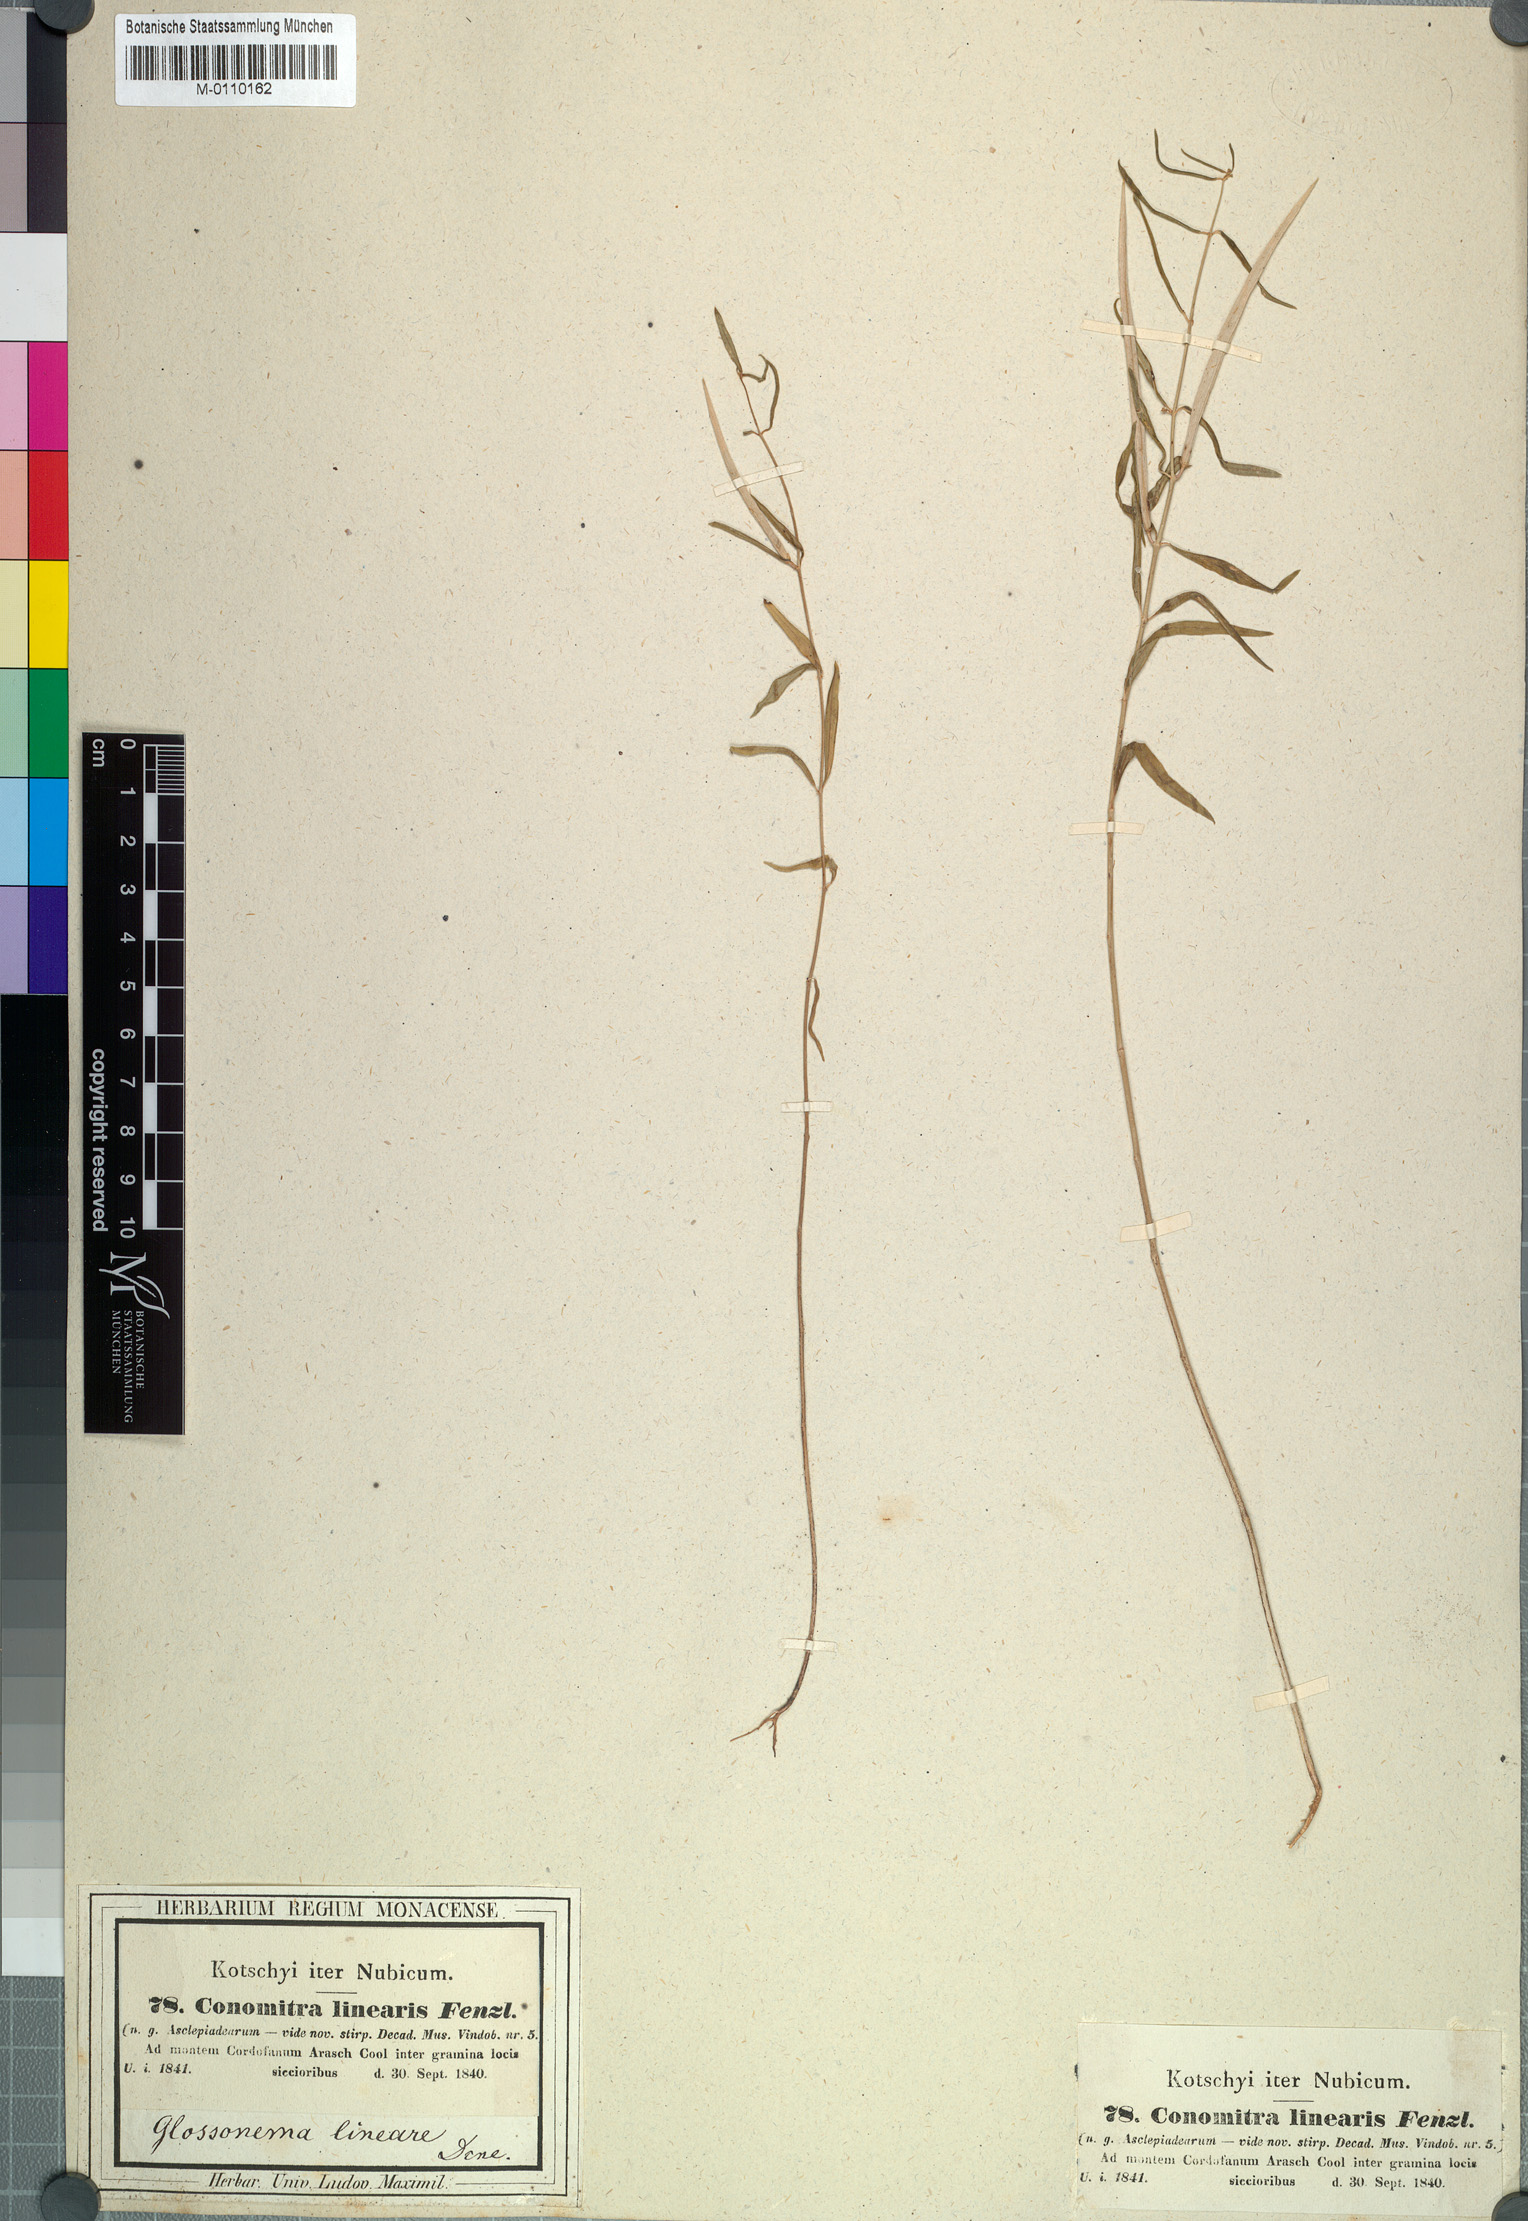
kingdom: Plantae
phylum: Tracheophyta
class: Magnoliopsida
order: Gentianales
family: Apocynaceae
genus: Conomitra
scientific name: Conomitra linearis
